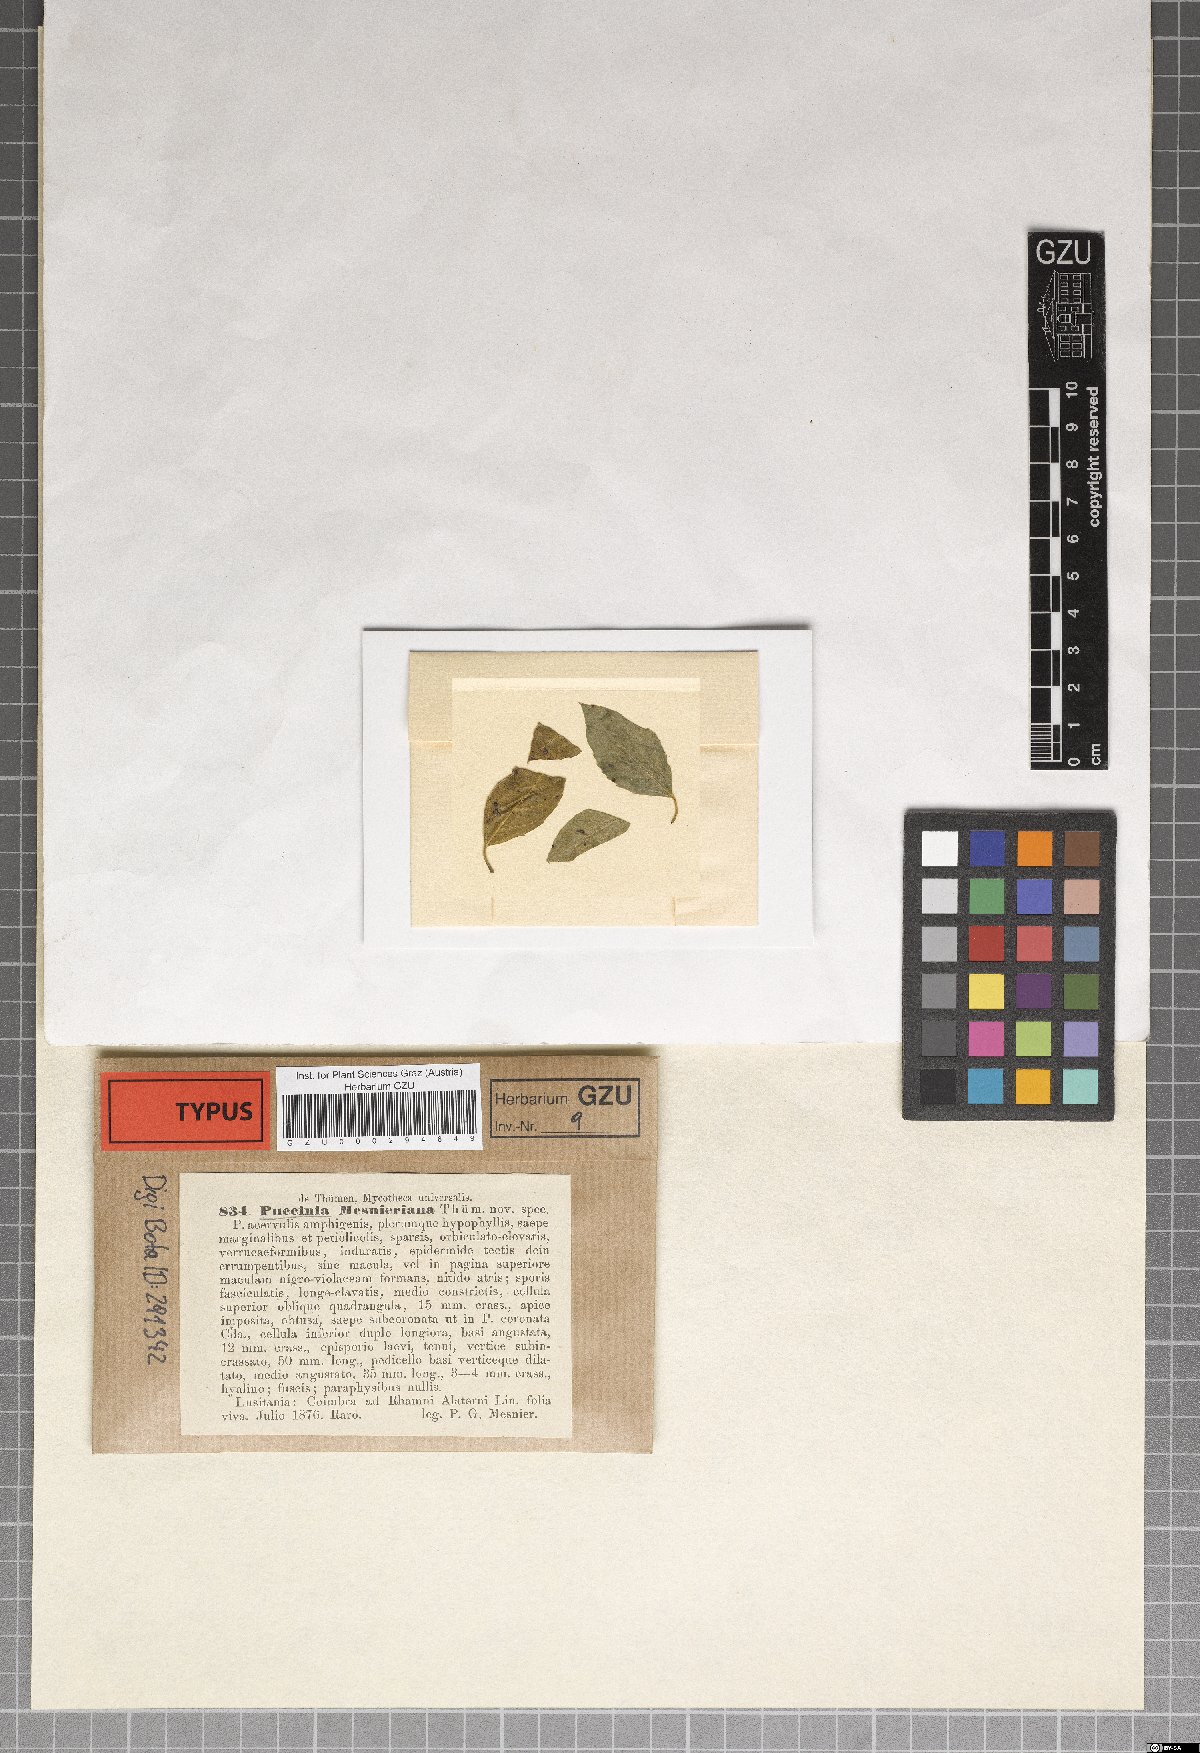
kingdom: Fungi
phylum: Basidiomycota
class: Pucciniomycetes
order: Pucciniales
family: Pucciniaceae
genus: Puccinia
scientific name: Puccinia mesnieriana
